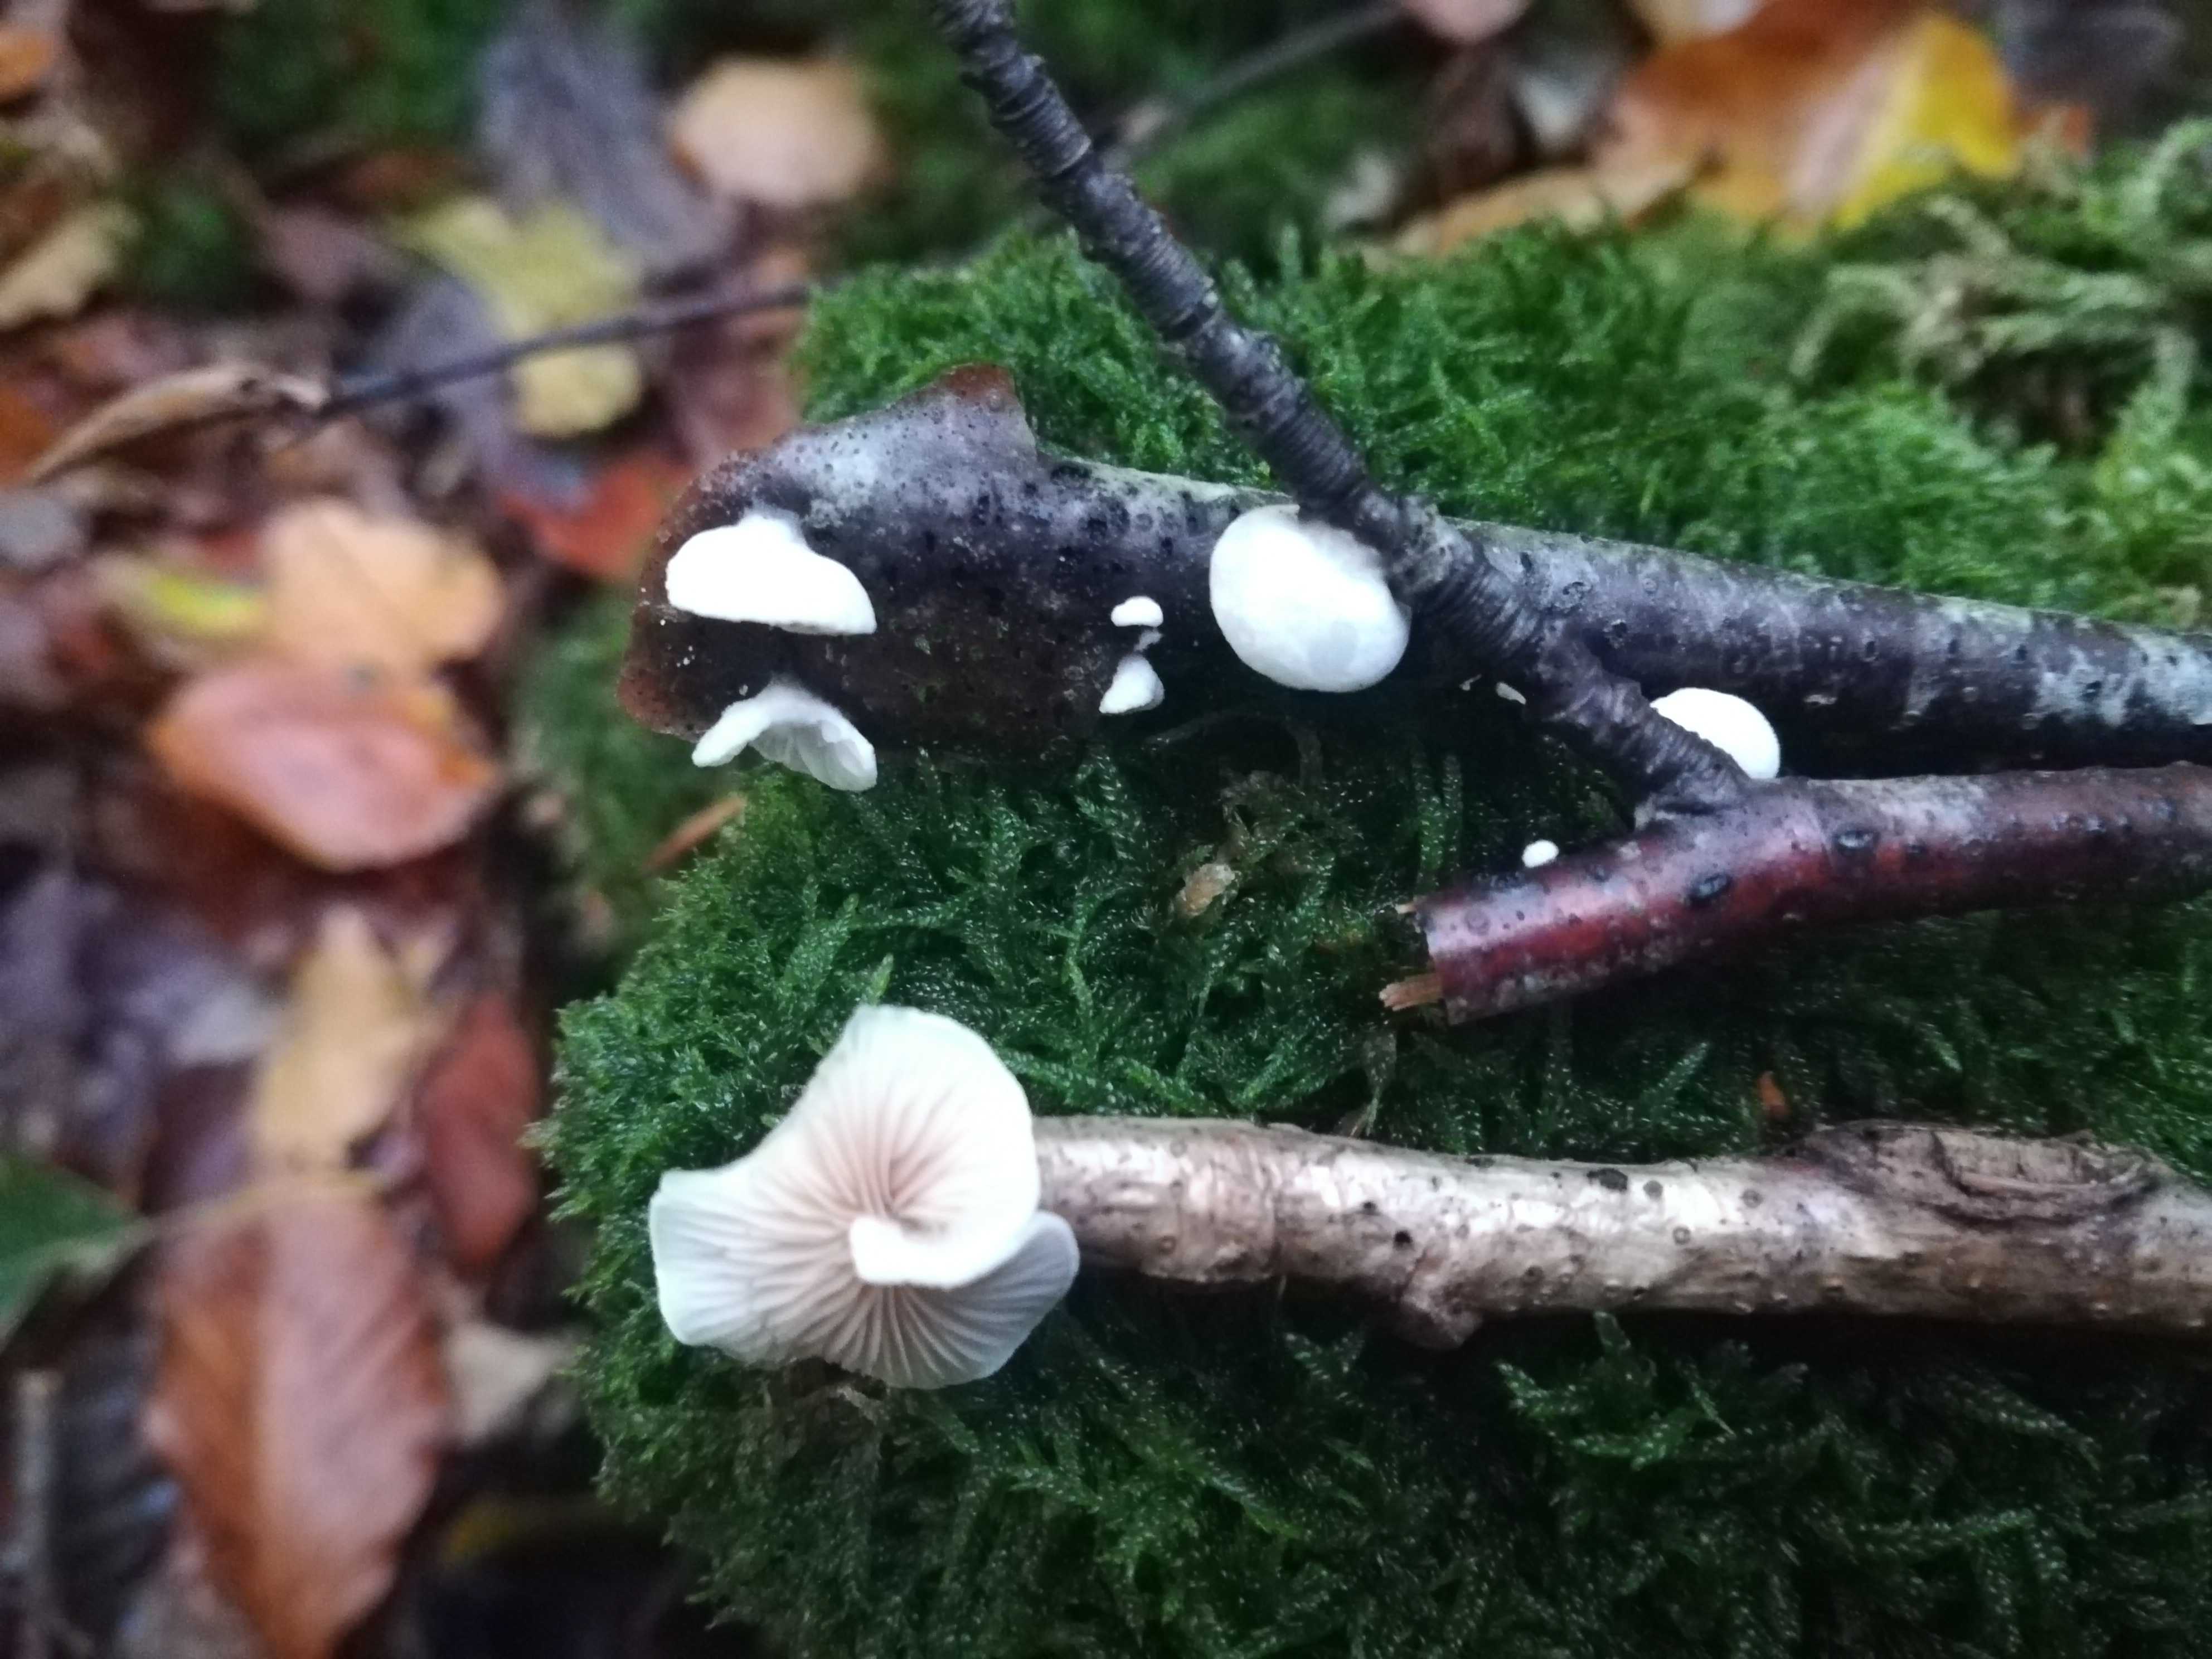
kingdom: Fungi
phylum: Basidiomycota
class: Agaricomycetes
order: Agaricales
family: Crepidotaceae
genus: Crepidotus
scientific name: Crepidotus
